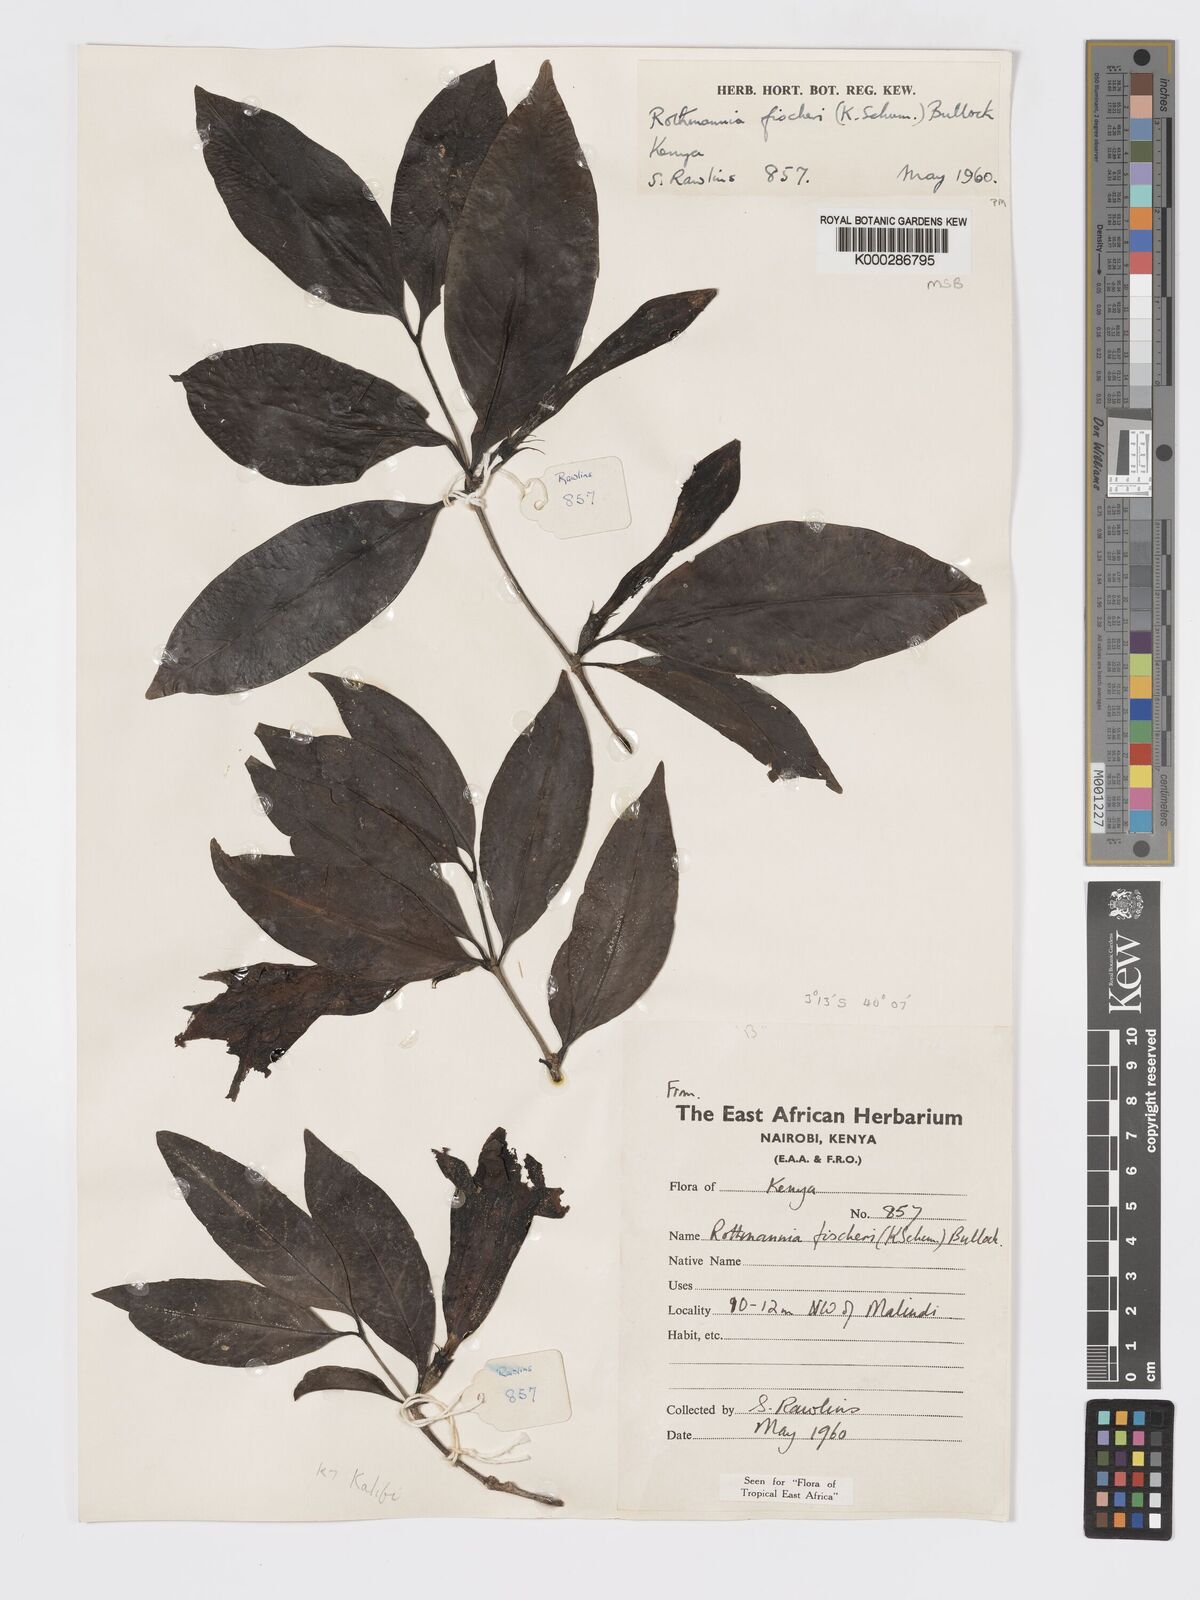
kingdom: Plantae
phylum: Tracheophyta
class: Magnoliopsida
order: Gentianales
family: Rubiaceae
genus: Rothmannia
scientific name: Rothmannia ravae
